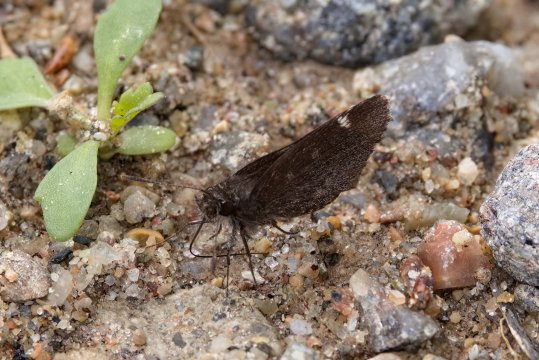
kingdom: Animalia
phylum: Arthropoda
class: Insecta
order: Lepidoptera
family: Hesperiidae
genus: Mastor
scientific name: Mastor vialis
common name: Common Roadside-Skipper
